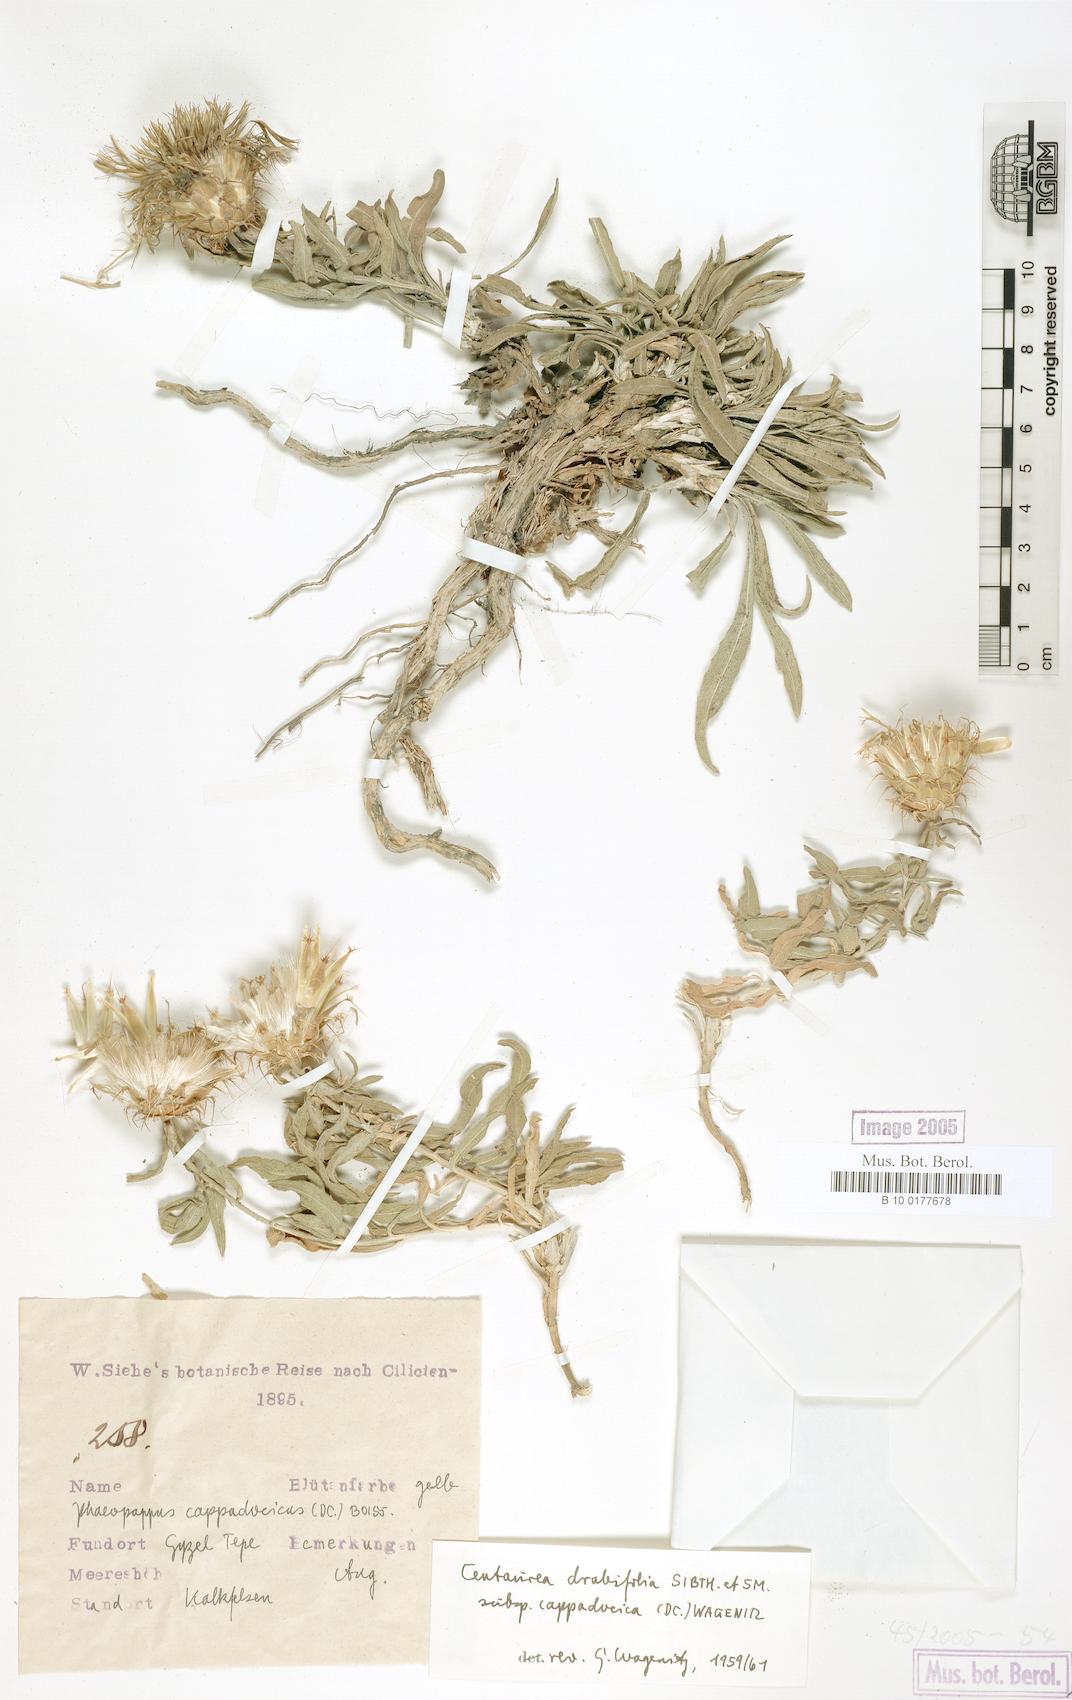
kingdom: Plantae
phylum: Tracheophyta
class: Magnoliopsida
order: Asterales
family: Asteraceae
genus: Centaurea
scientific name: Centaurea drabifolia
